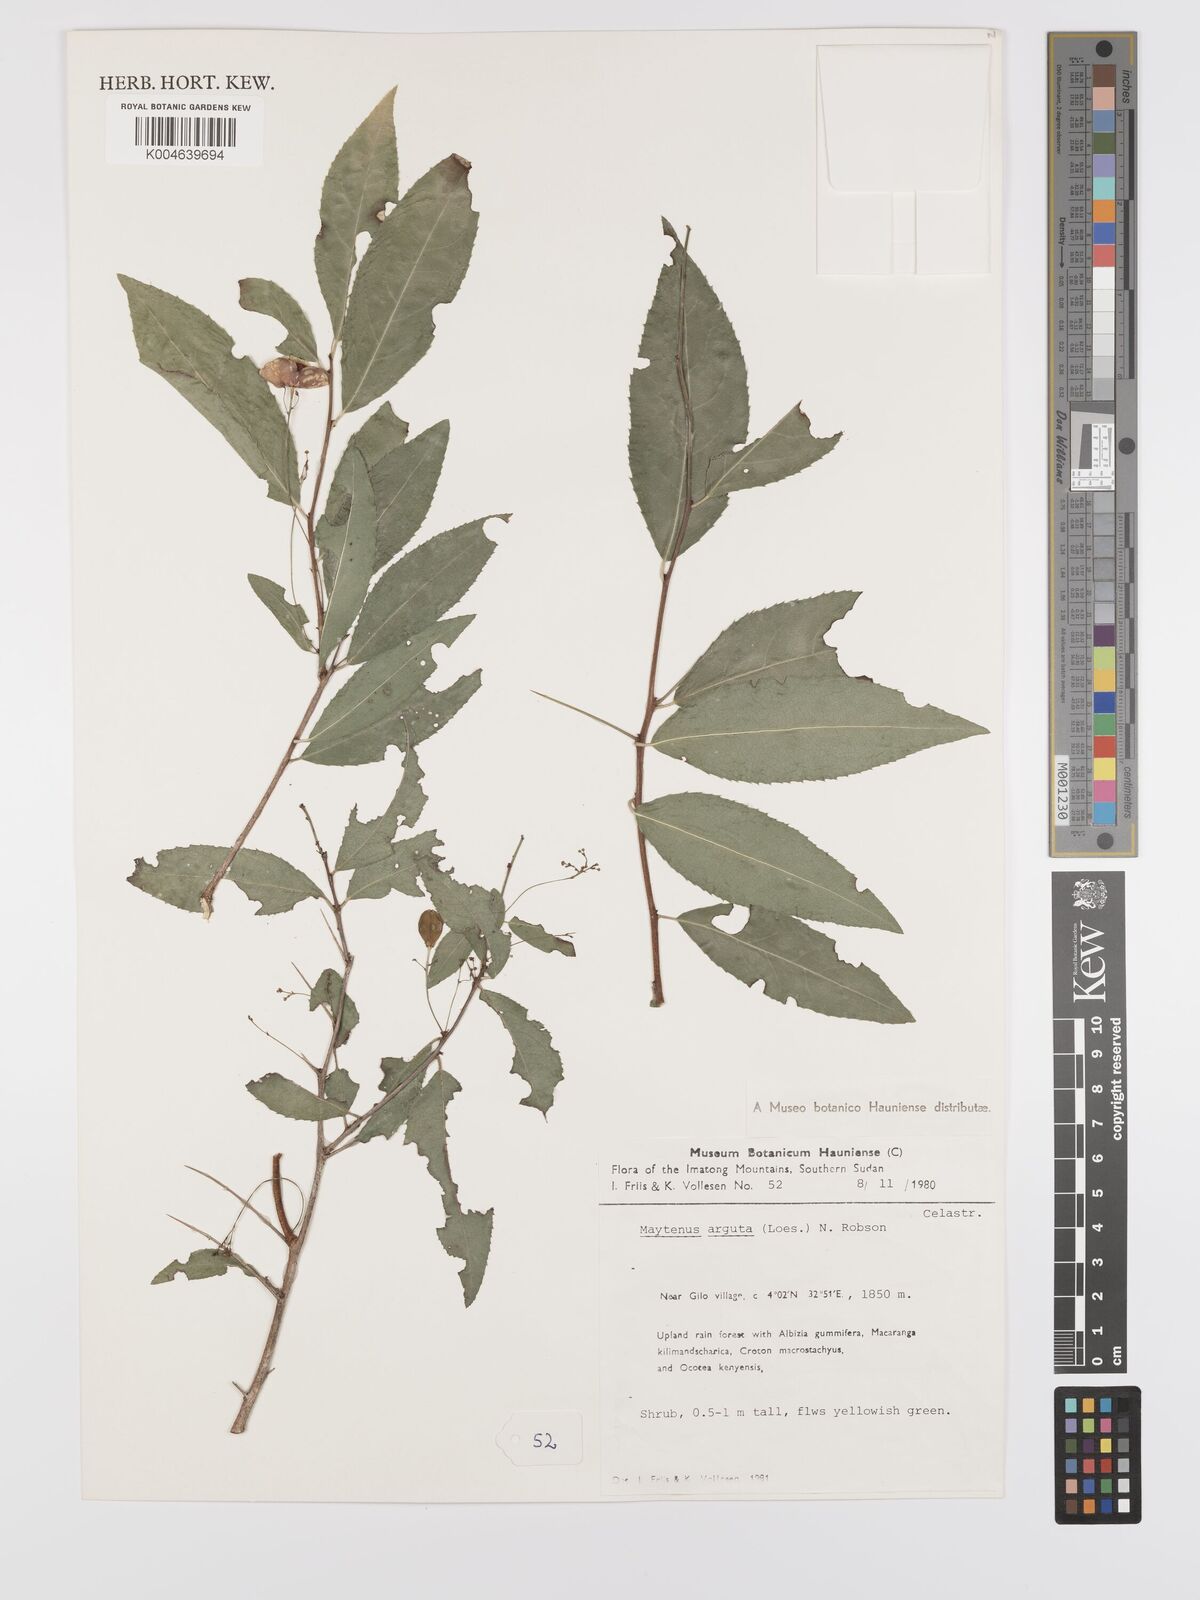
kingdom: Plantae
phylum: Tracheophyta
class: Magnoliopsida
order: Celastrales
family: Celastraceae
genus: Gymnosporia
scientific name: Gymnosporia gracilipes
